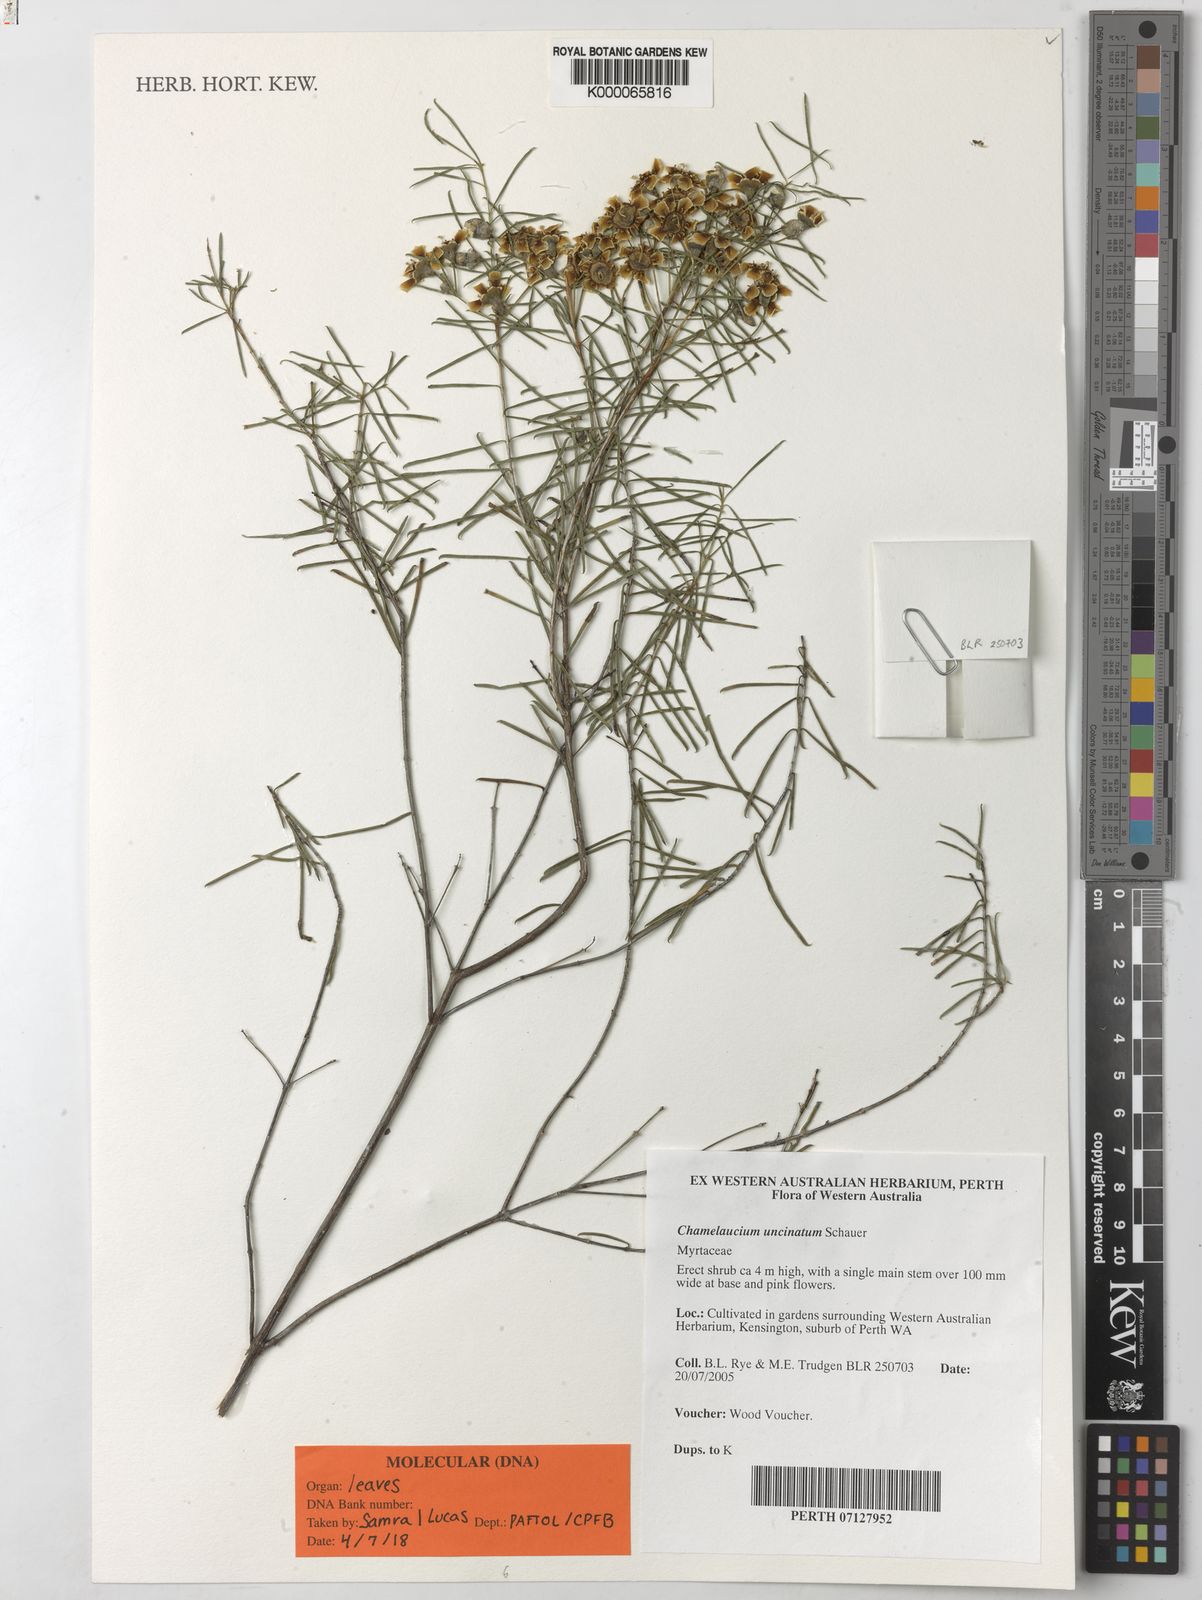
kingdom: Plantae
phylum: Tracheophyta
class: Magnoliopsida
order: Myrtales
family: Myrtaceae
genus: Chamelaucium
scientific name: Chamelaucium uncinatum
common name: Geraldton wax
